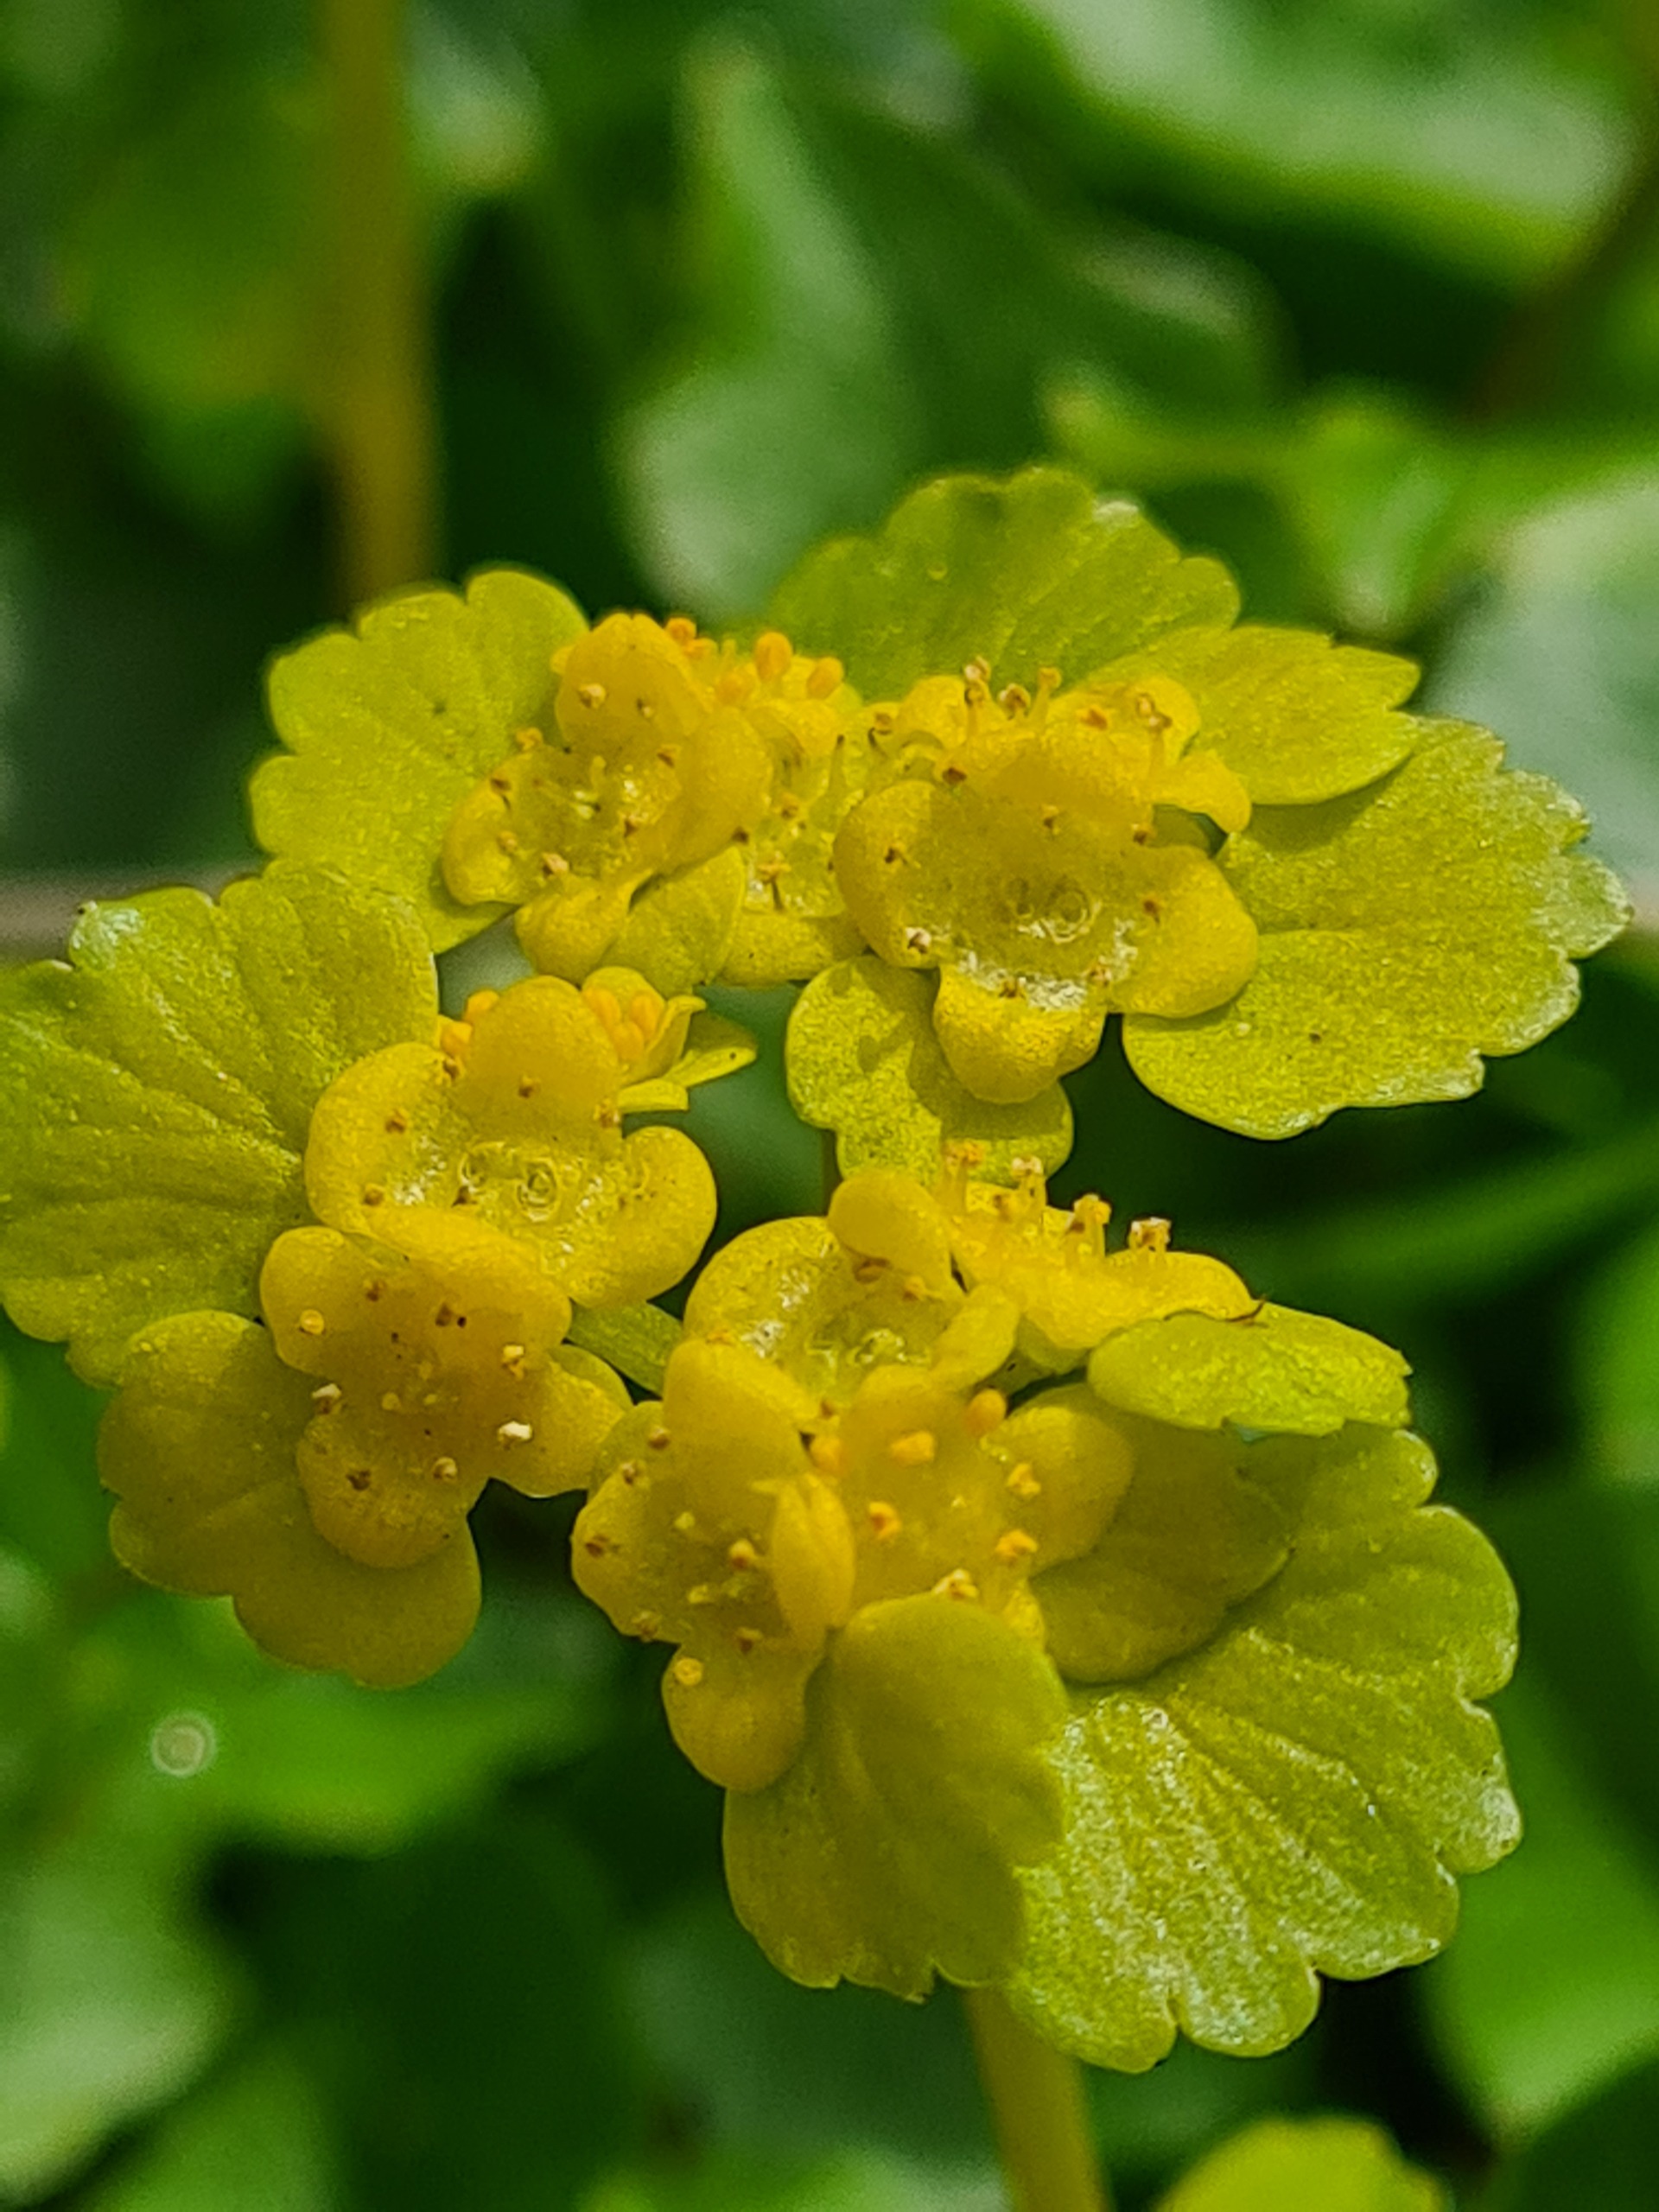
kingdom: Plantae
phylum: Tracheophyta
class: Magnoliopsida
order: Saxifragales
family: Saxifragaceae
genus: Chrysosplenium
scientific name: Chrysosplenium alternifolium
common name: Almindelig milturt
